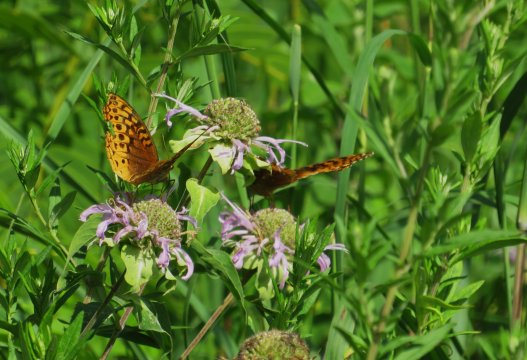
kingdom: Animalia
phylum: Arthropoda
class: Insecta
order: Lepidoptera
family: Nymphalidae
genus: Speyeria
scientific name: Speyeria cybele
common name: Great Spangled Fritillary
